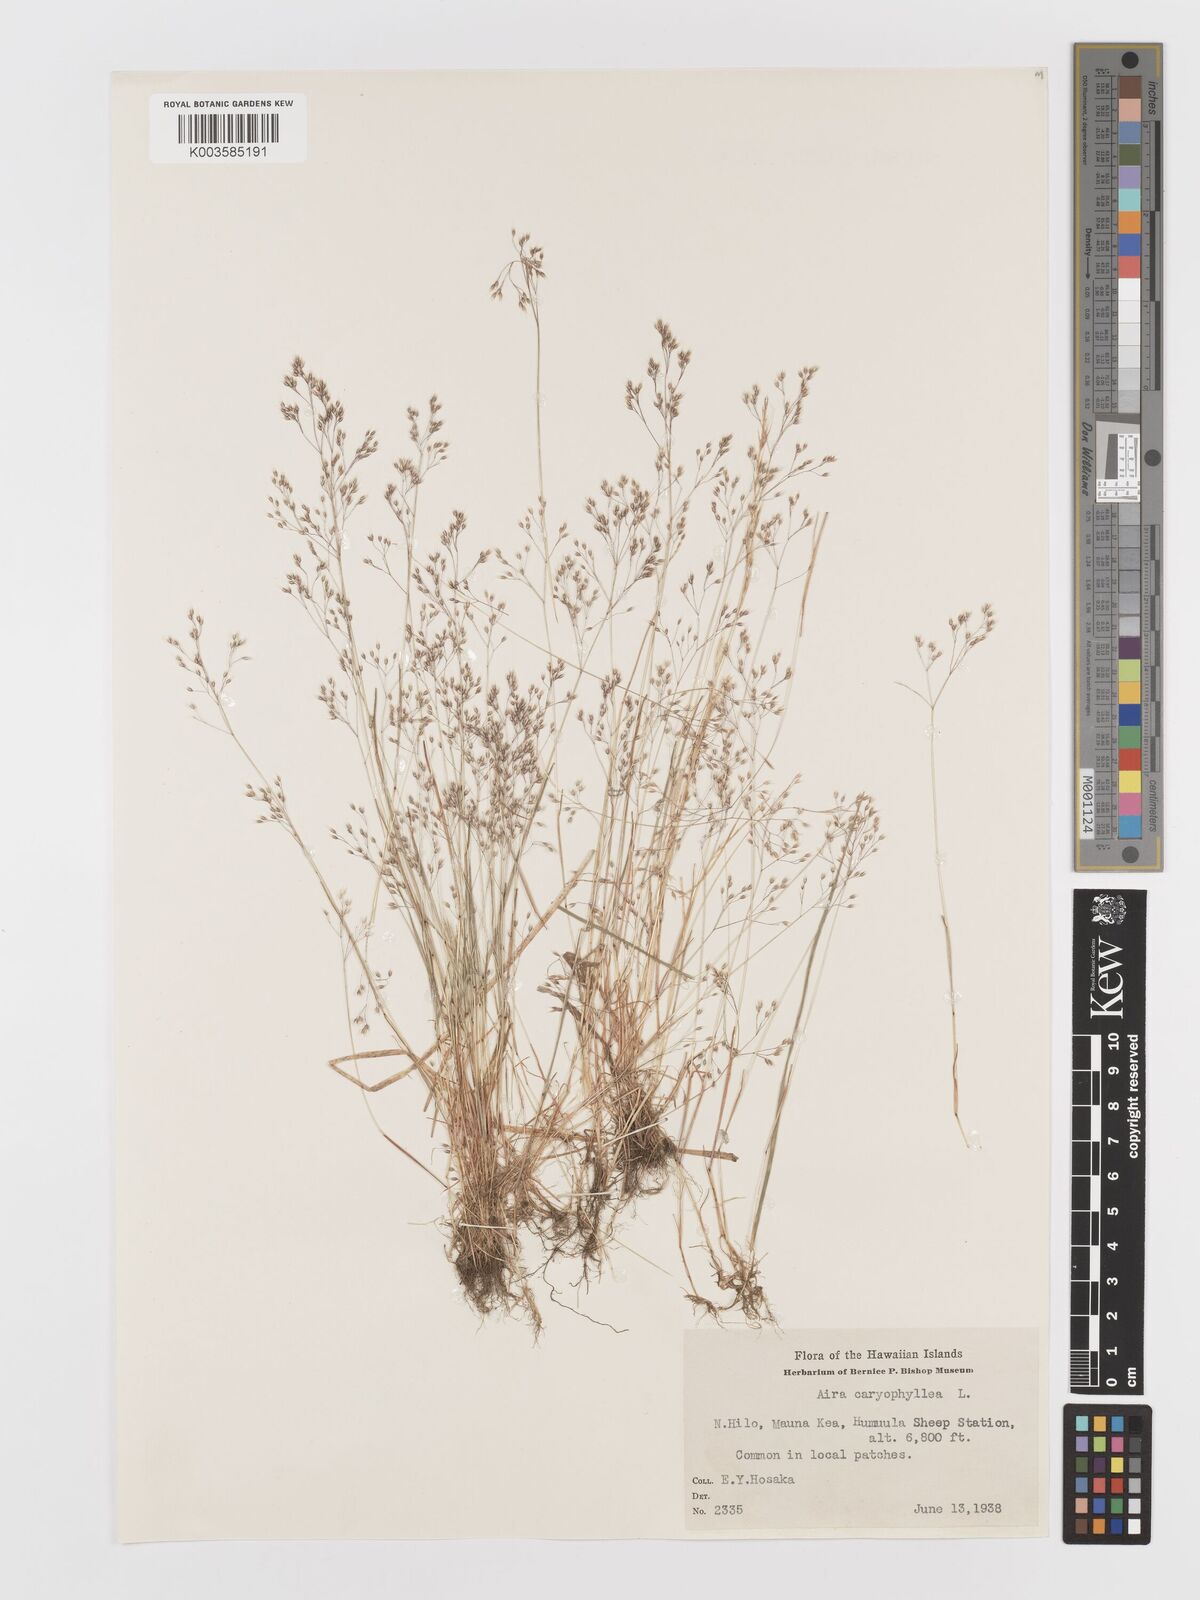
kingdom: Plantae
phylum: Tracheophyta
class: Liliopsida
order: Poales
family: Poaceae
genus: Aira
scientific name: Aira caryophyllea
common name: Silver hairgrass
